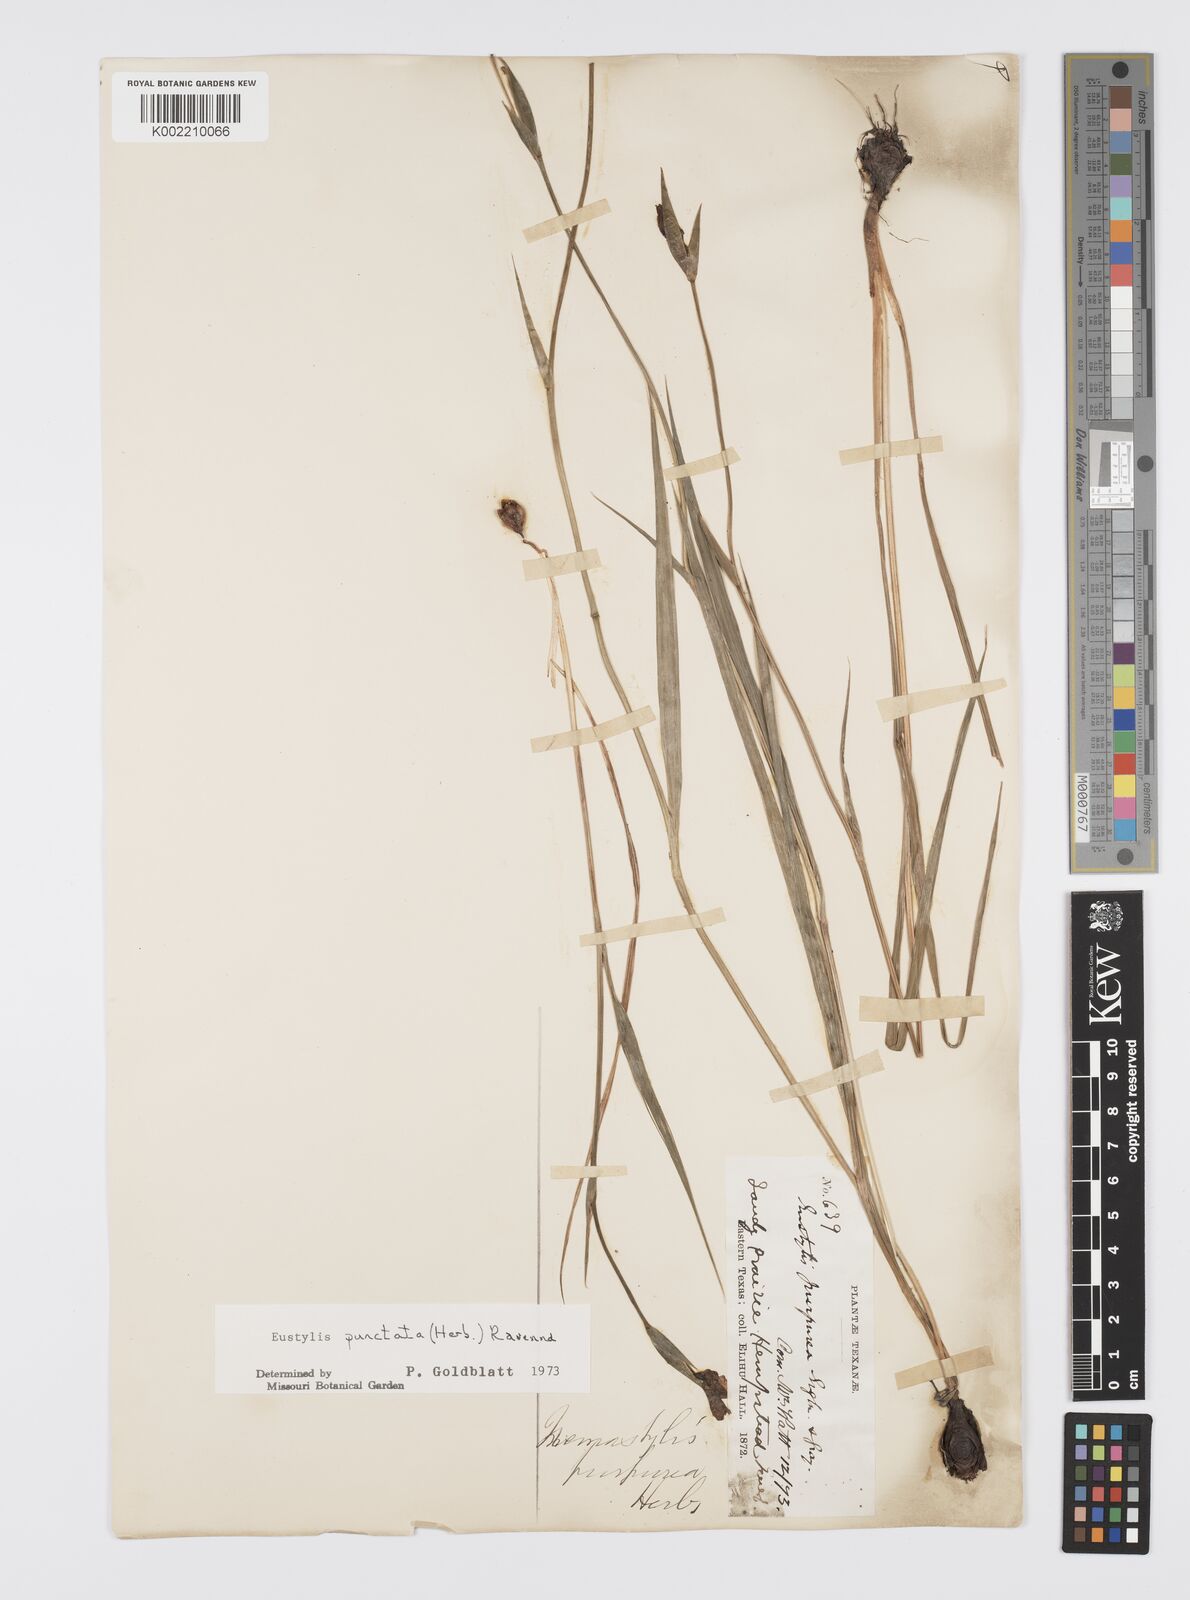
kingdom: Plantae
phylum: Tracheophyta
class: Liliopsida
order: Asparagales
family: Iridaceae
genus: Alophia
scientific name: Alophia drummondii
